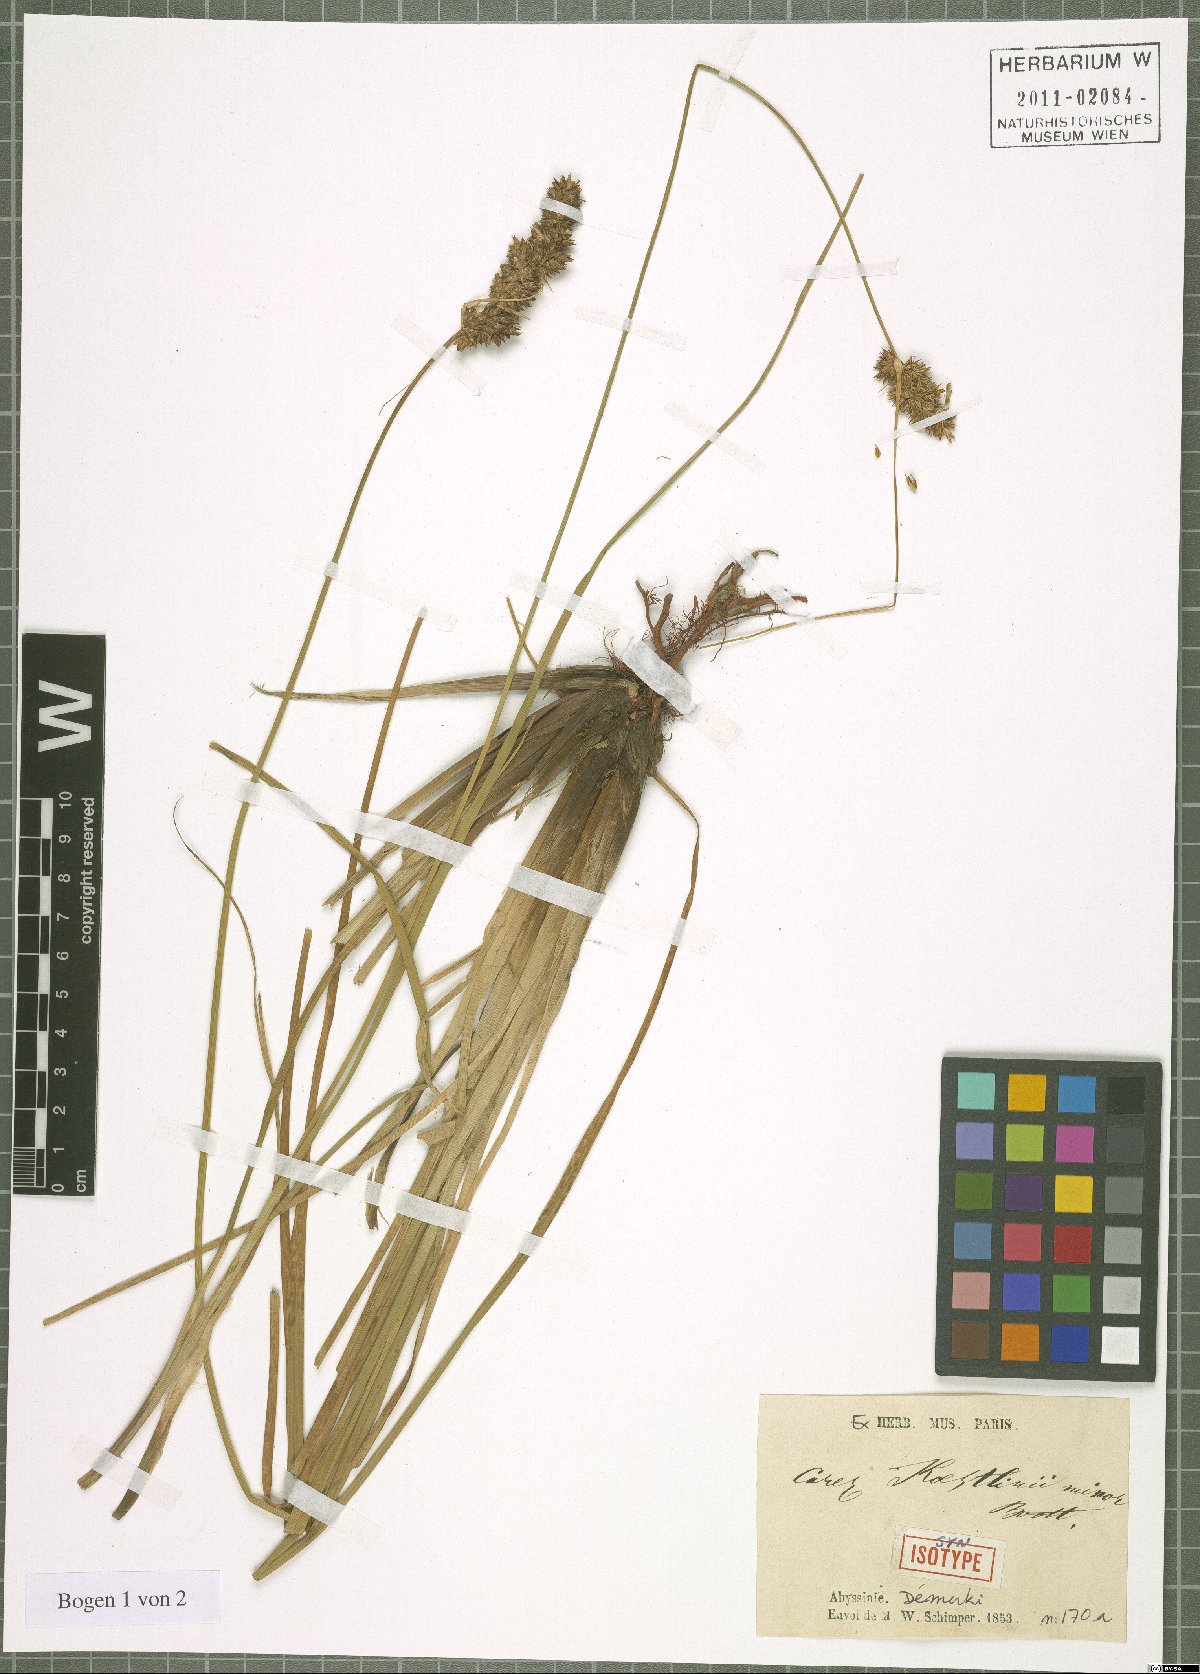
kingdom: Plantae
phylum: Tracheophyta
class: Liliopsida
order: Poales
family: Cyperaceae
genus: Carex
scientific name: Carex erythrorrhiza
